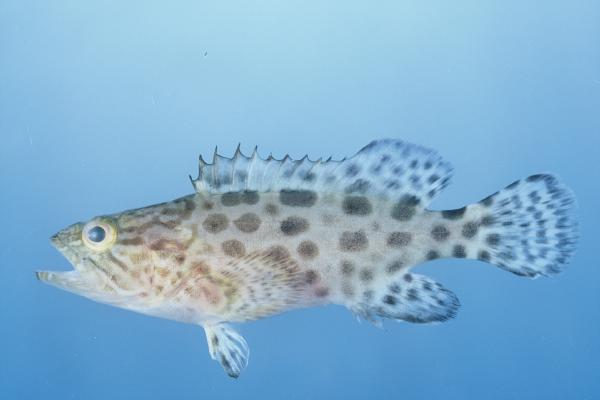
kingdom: Animalia
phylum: Chordata
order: Perciformes
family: Serranidae
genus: Epinephelus
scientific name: Epinephelus tukula
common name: Potato cod
